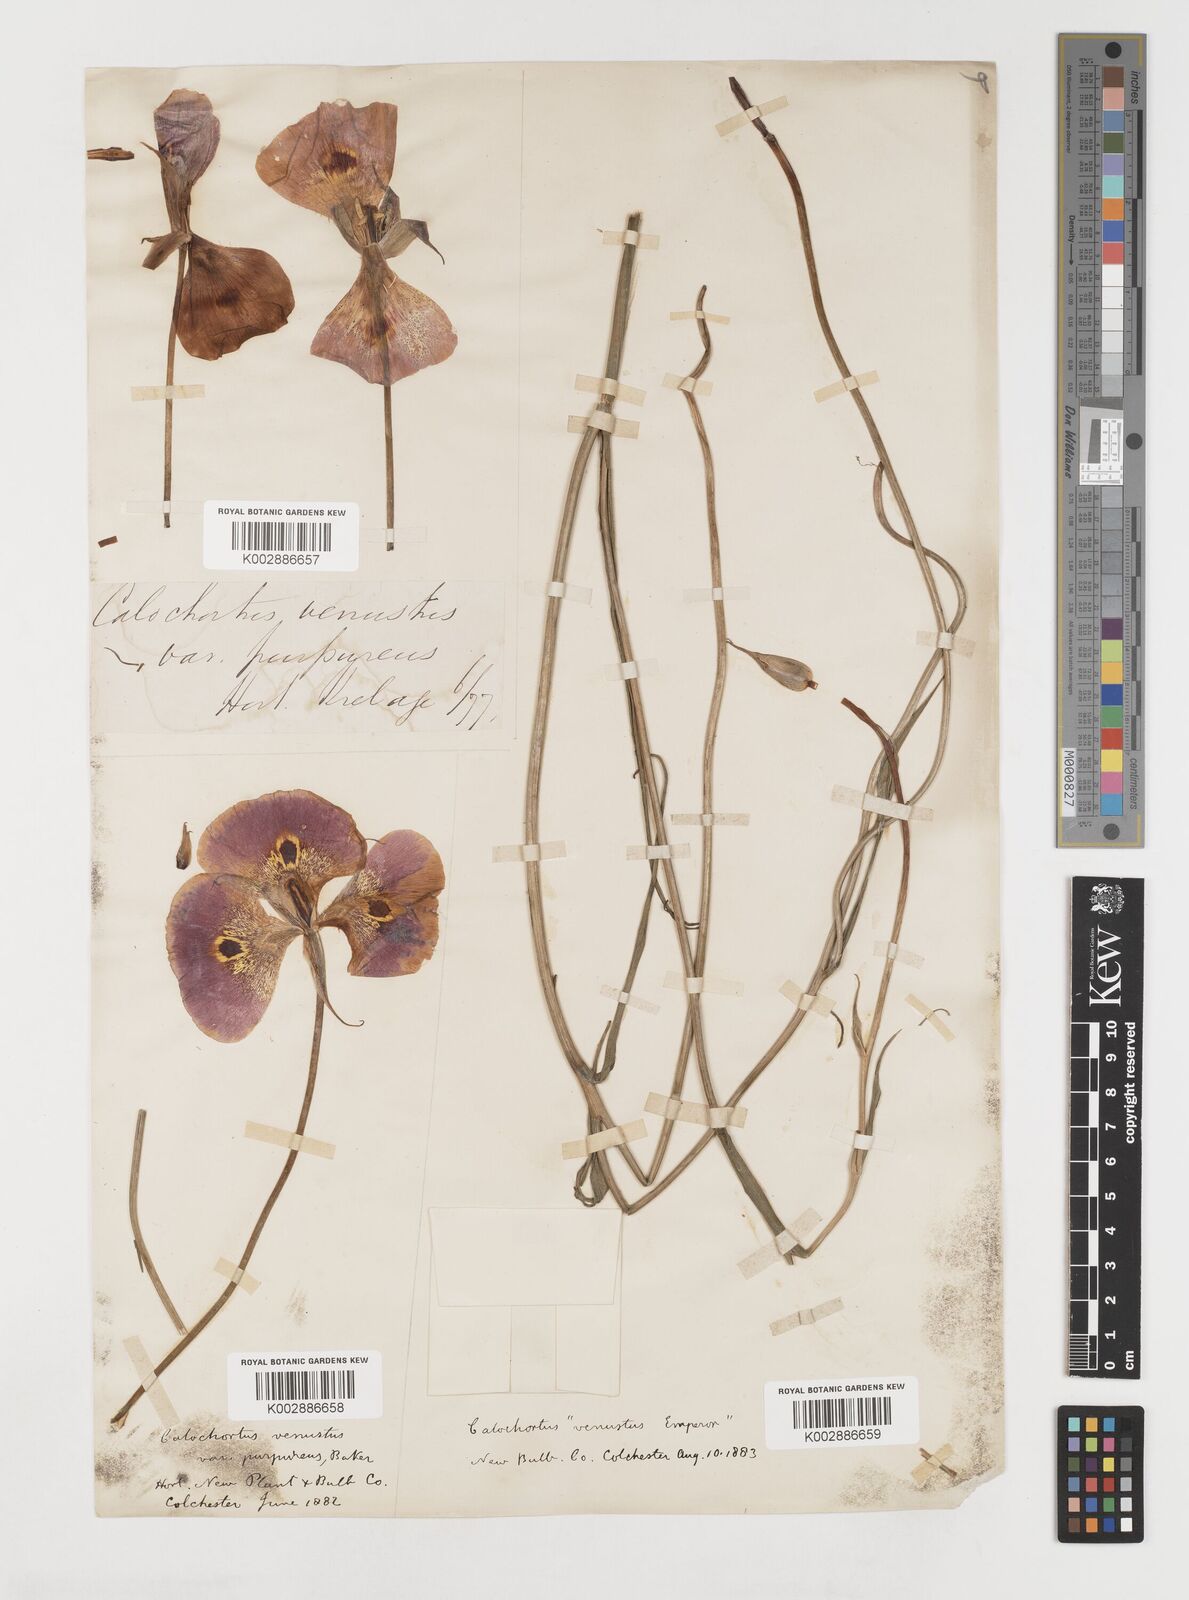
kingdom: Plantae
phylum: Tracheophyta
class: Liliopsida
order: Liliales
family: Liliaceae
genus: Calochortus
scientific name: Calochortus venustus
